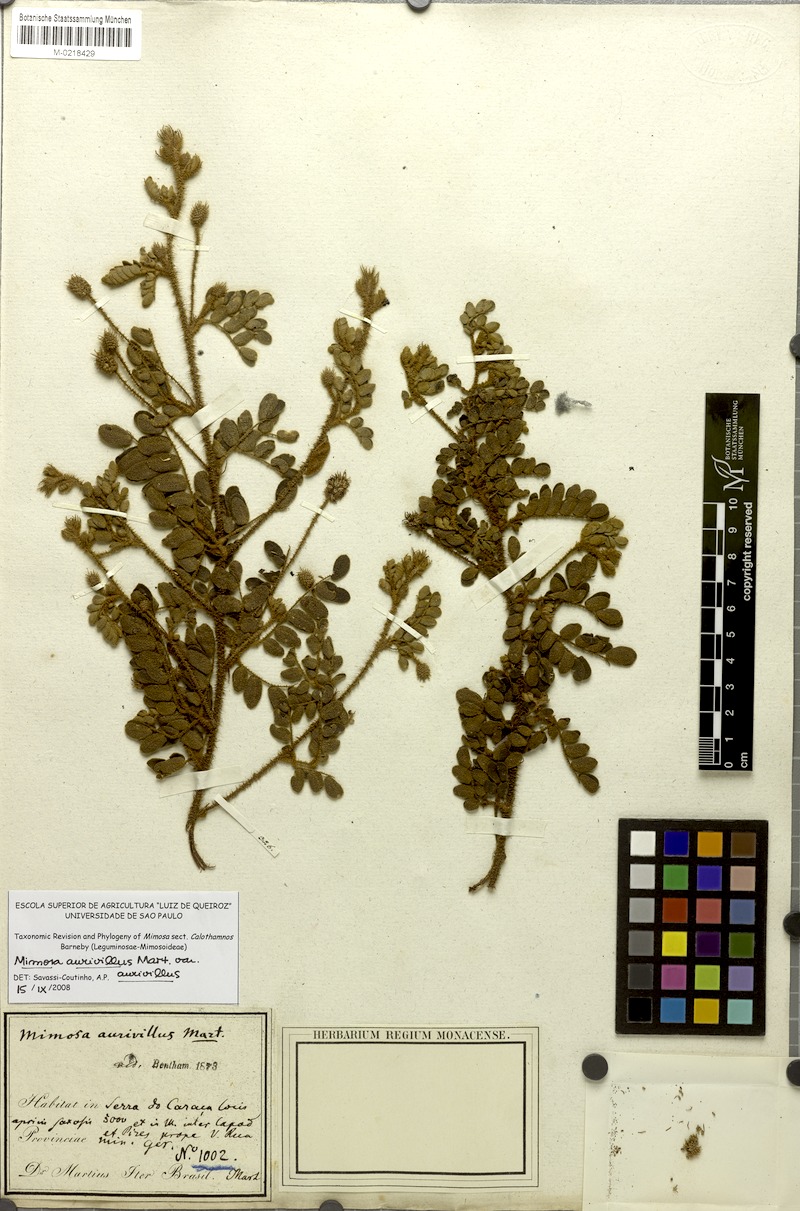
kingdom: Plantae
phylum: Tracheophyta
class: Magnoliopsida
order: Fabales
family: Fabaceae
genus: Mimosa
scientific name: Mimosa aurivillus
